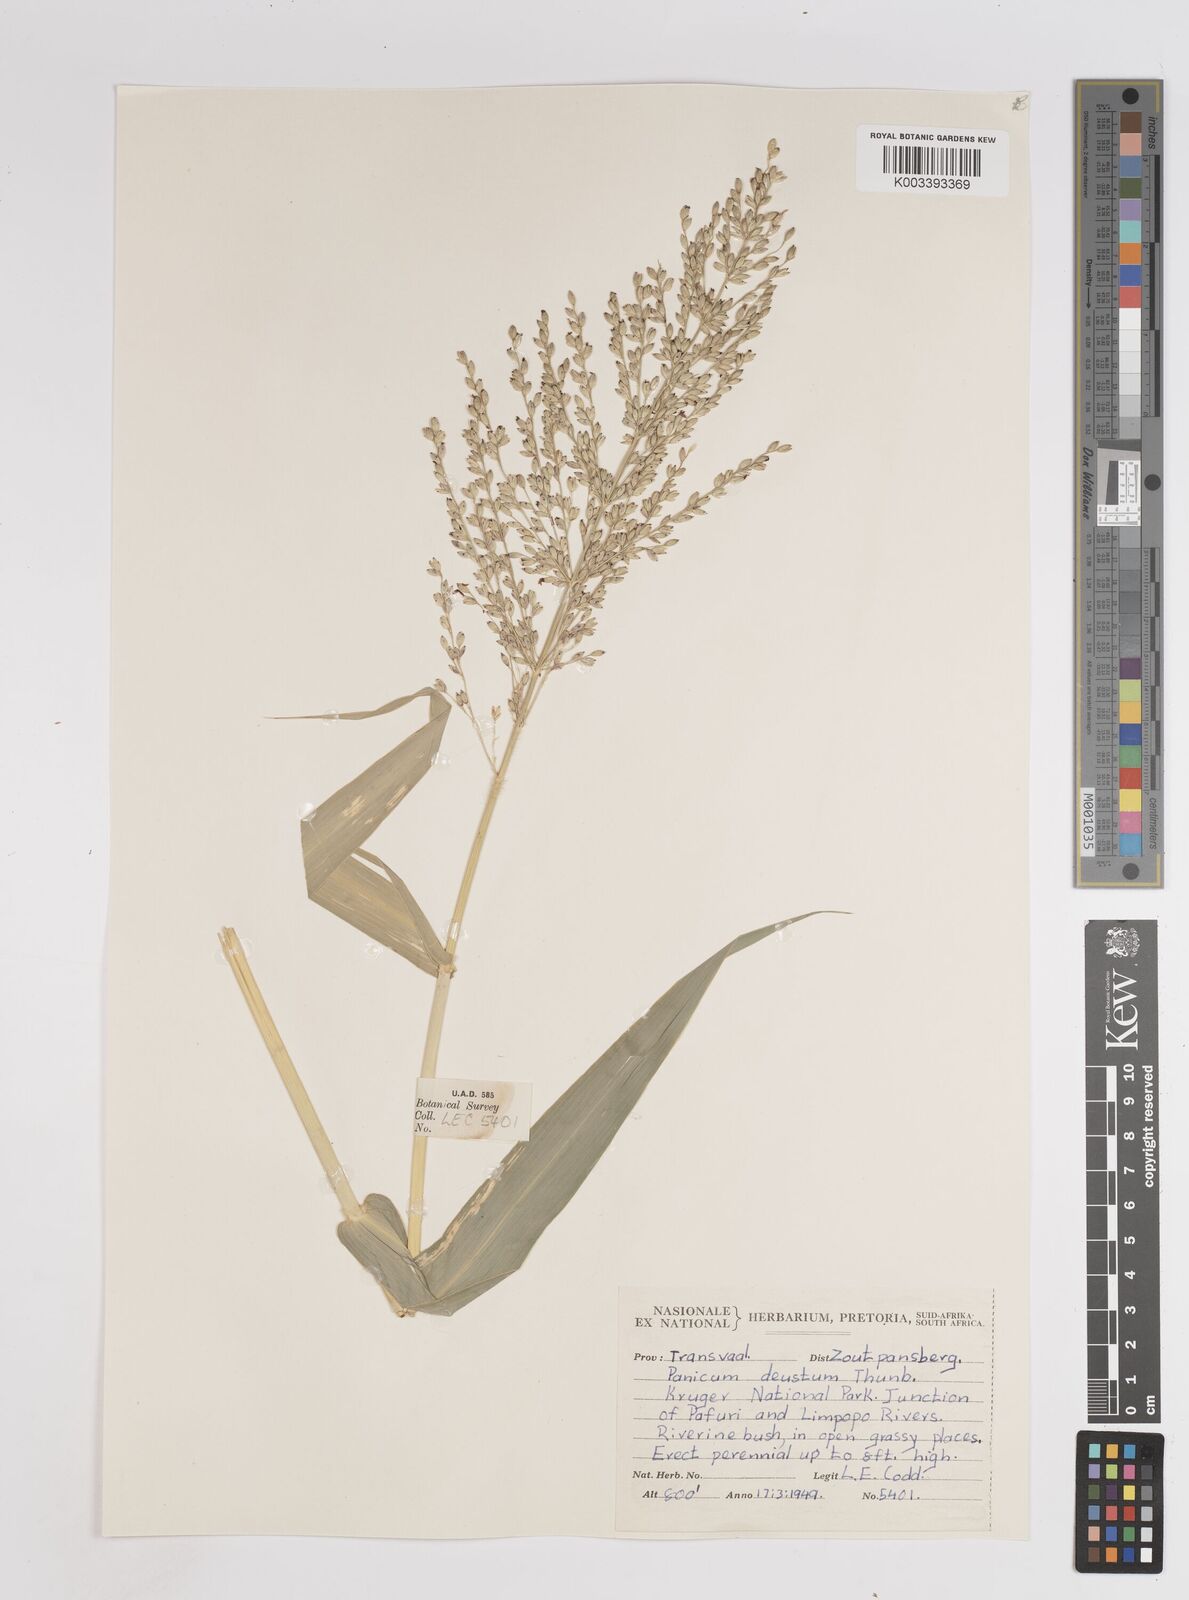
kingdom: Plantae
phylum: Tracheophyta
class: Liliopsida
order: Poales
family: Poaceae
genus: Panicum
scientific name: Panicum deustum
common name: Reed panicum
